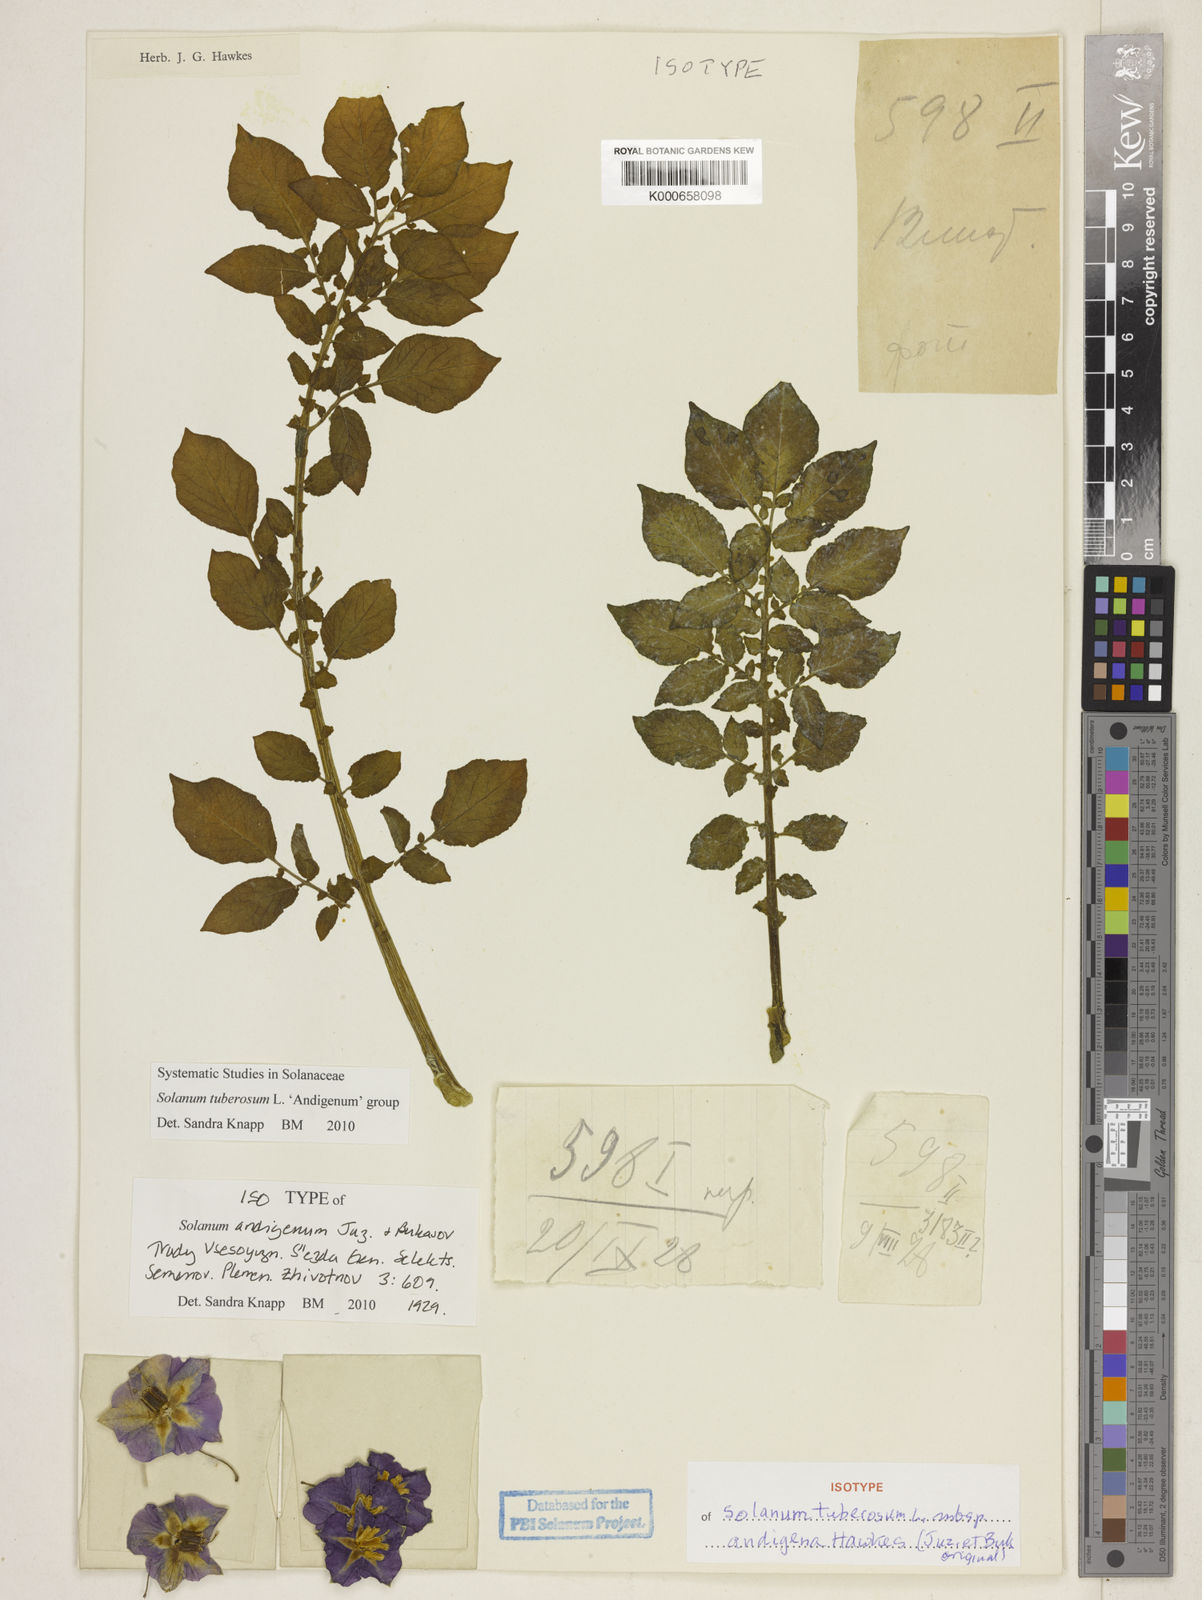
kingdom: Plantae
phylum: Tracheophyta
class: Magnoliopsida
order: Solanales
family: Solanaceae
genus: Solanum
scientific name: Solanum tuberosum
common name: Potato
